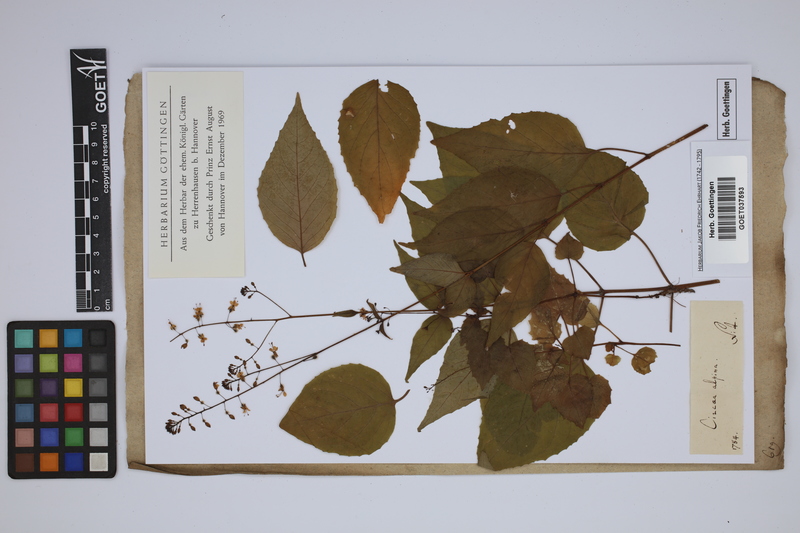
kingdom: Plantae
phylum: Tracheophyta
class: Magnoliopsida
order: Myrtales
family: Onagraceae
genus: Circaea
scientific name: Circaea alpina
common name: Alpine enchanter's-nightshade
